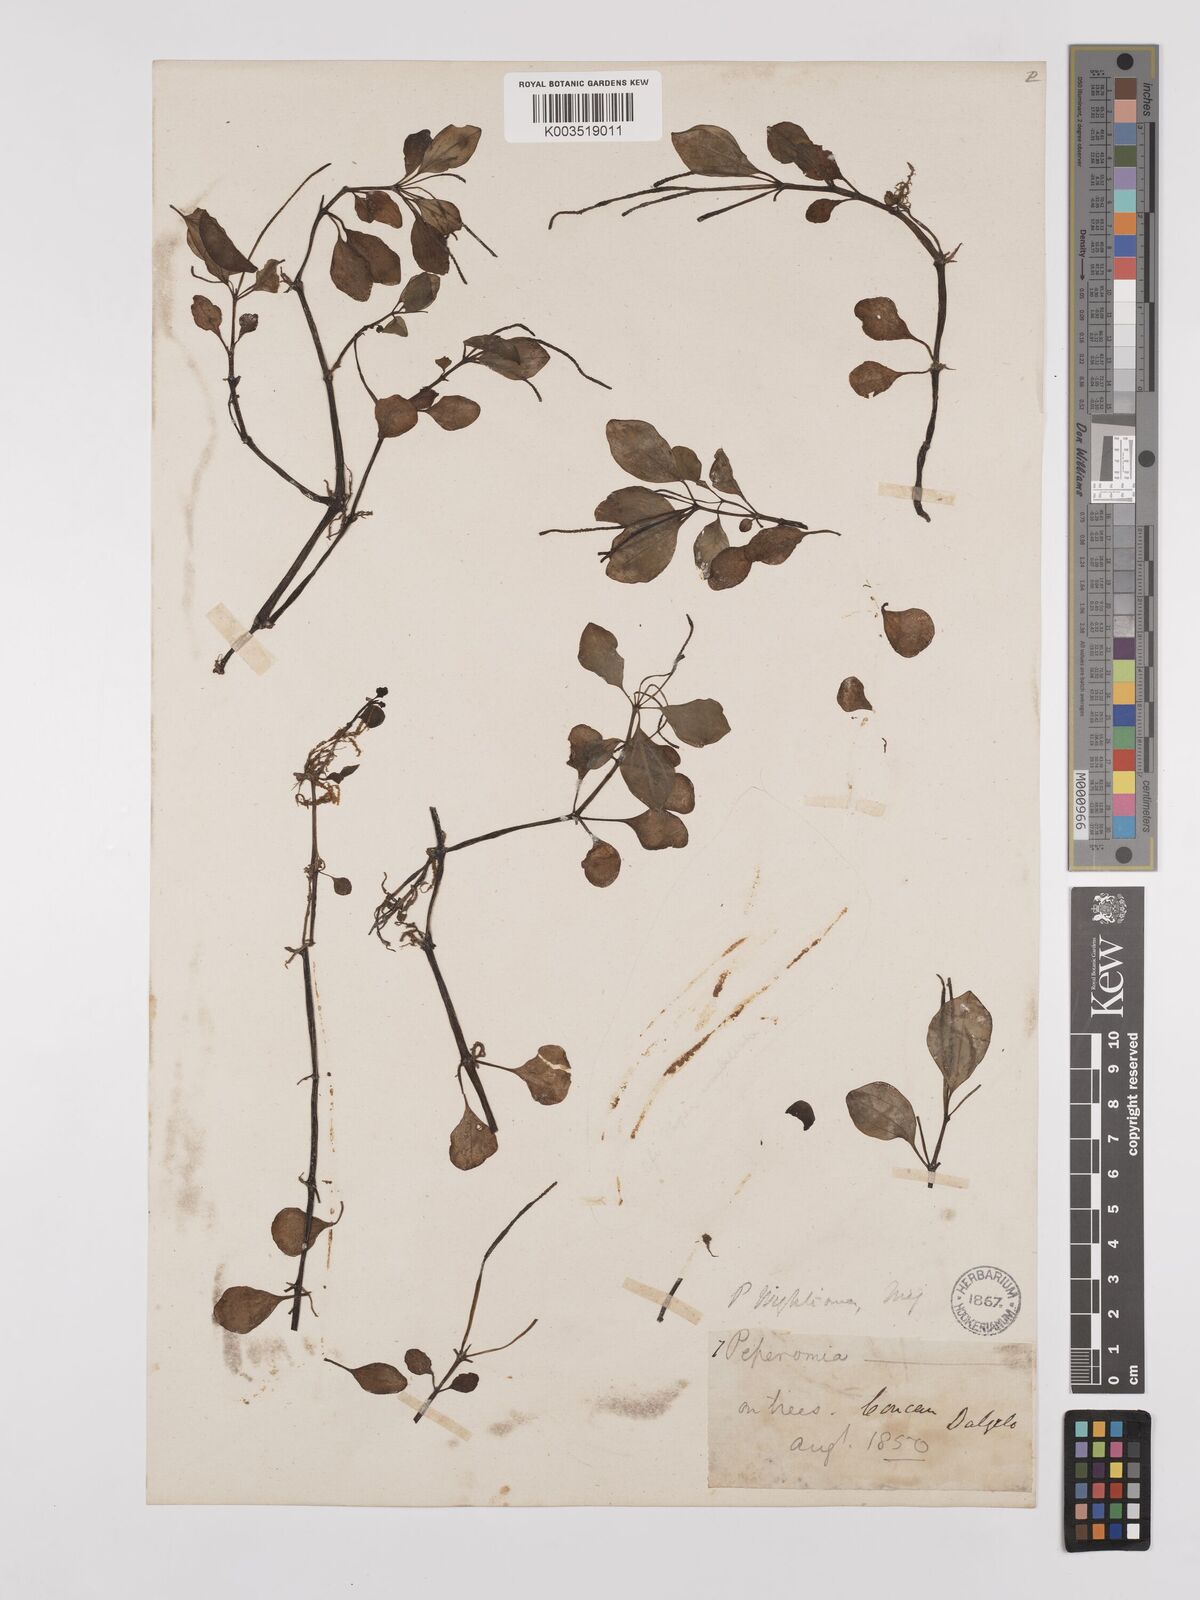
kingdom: Plantae
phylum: Tracheophyta
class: Magnoliopsida
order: Piperales
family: Piperaceae
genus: Peperomia
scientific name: Peperomia wightiana
